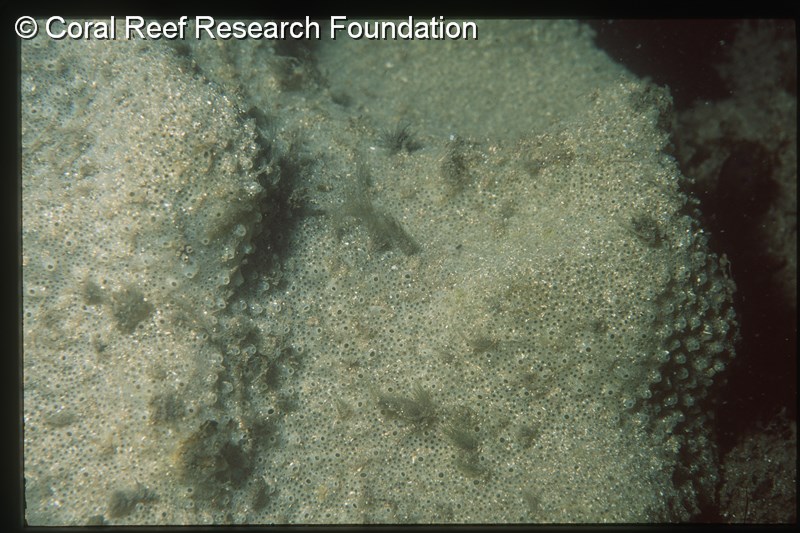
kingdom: Animalia
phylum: Chordata
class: Ascidiacea
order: Aplousobranchia
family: Polyclinidae
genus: Polyclinum
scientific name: Polyclinum isipingense
